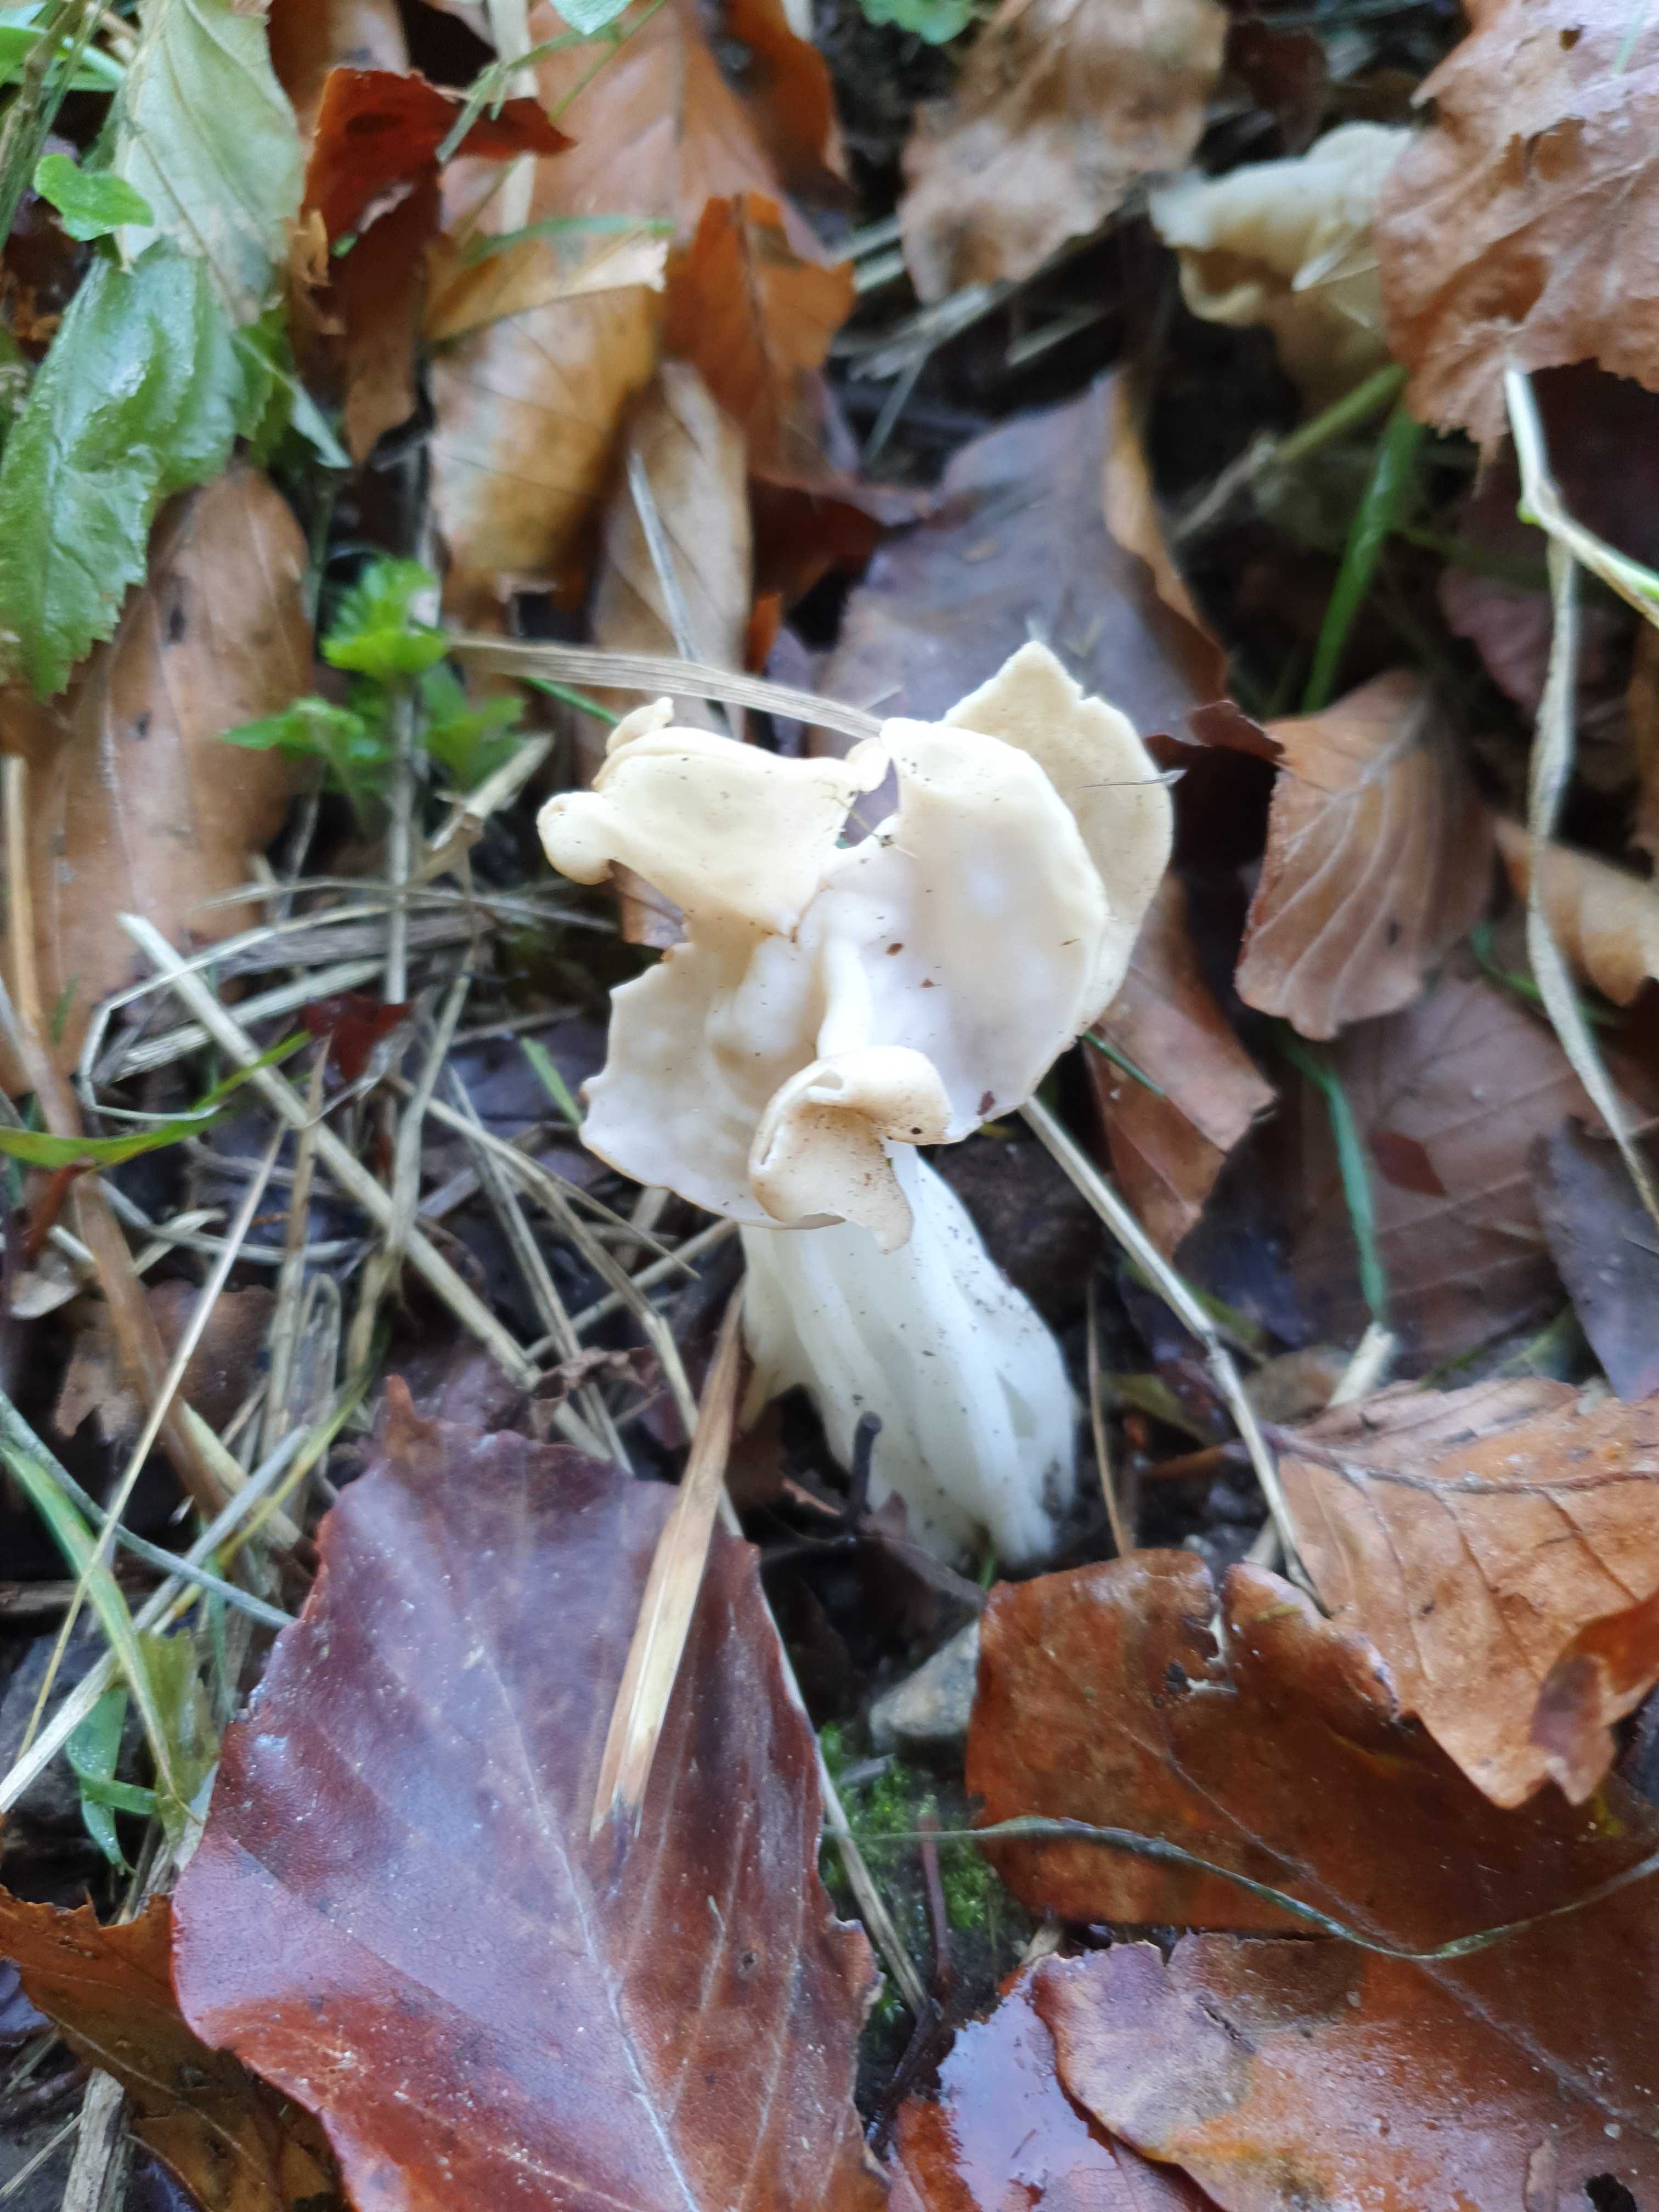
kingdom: Fungi
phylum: Ascomycota
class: Pezizomycetes
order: Pezizales
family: Helvellaceae
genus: Helvella
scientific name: Helvella crispa
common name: kruset foldhat
